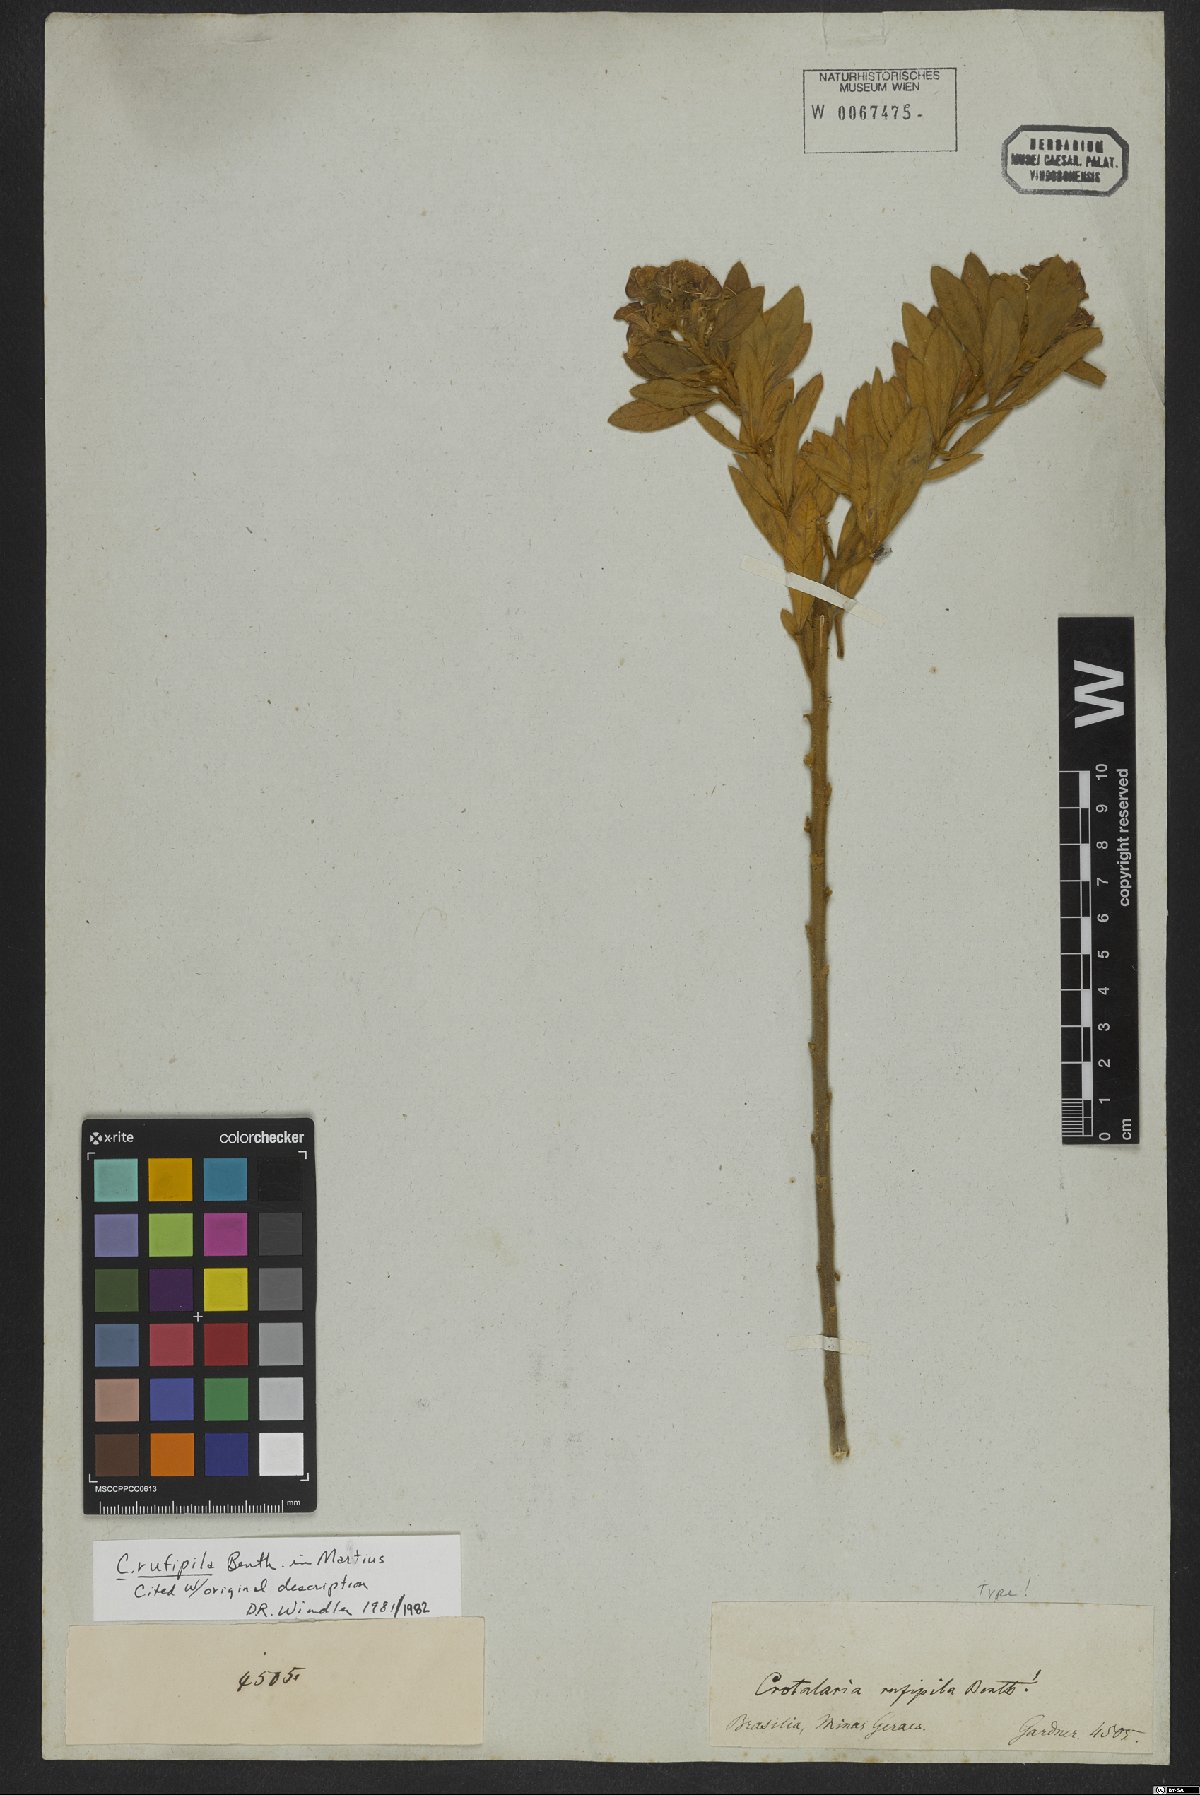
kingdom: Plantae
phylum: Tracheophyta
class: Magnoliopsida
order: Fabales
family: Fabaceae
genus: Crotalaria
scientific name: Crotalaria rufipila
